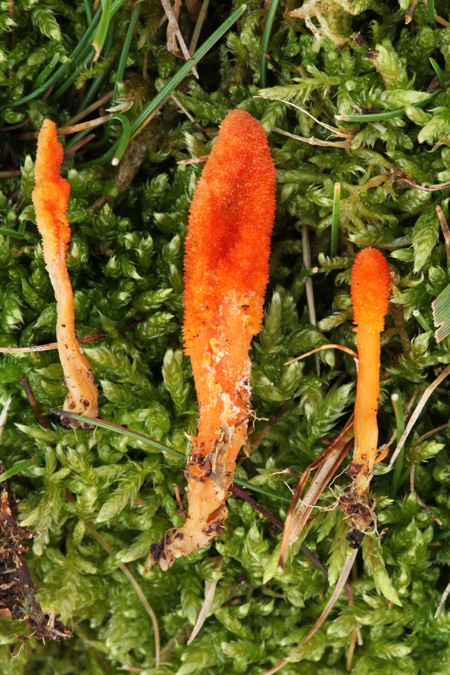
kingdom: Fungi
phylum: Ascomycota
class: Sordariomycetes
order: Hypocreales
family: Cordycipitaceae
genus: Cordyceps
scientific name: Cordyceps militaris
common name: puppe-snyltekølle
